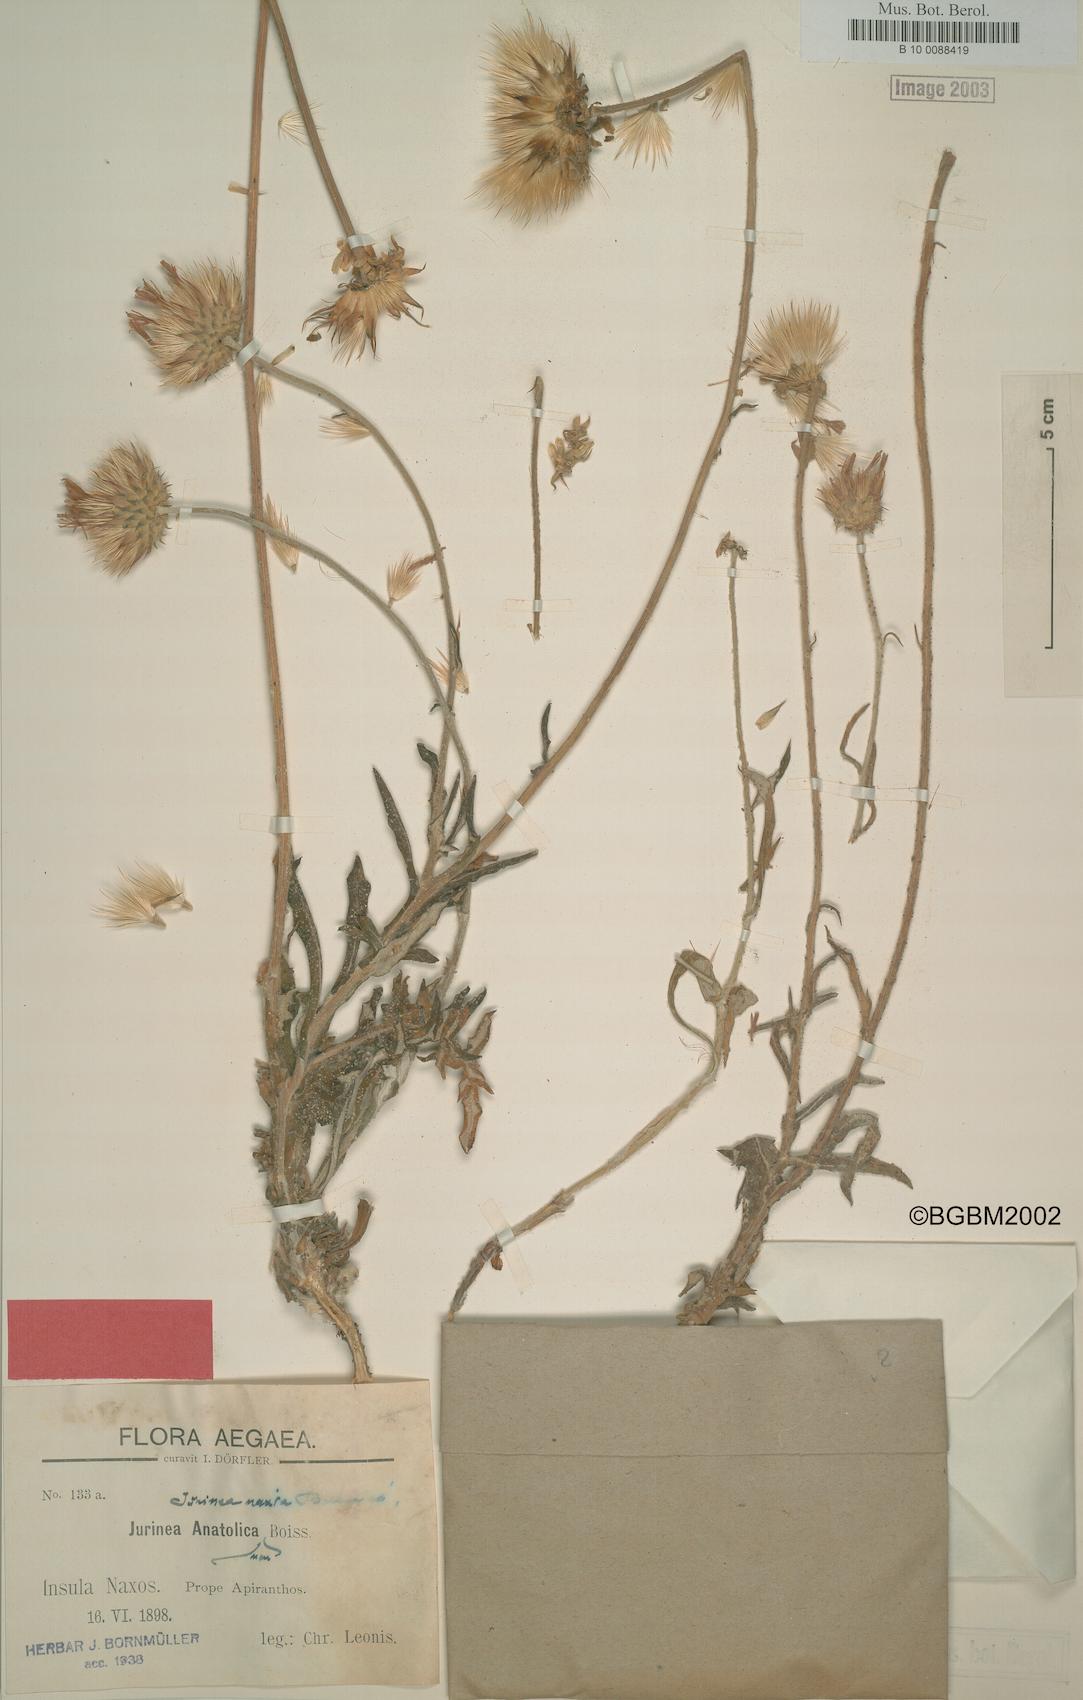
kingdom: Plantae
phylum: Tracheophyta
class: Magnoliopsida
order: Asterales
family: Asteraceae
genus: Jurinea
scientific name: Jurinea consanguinea
